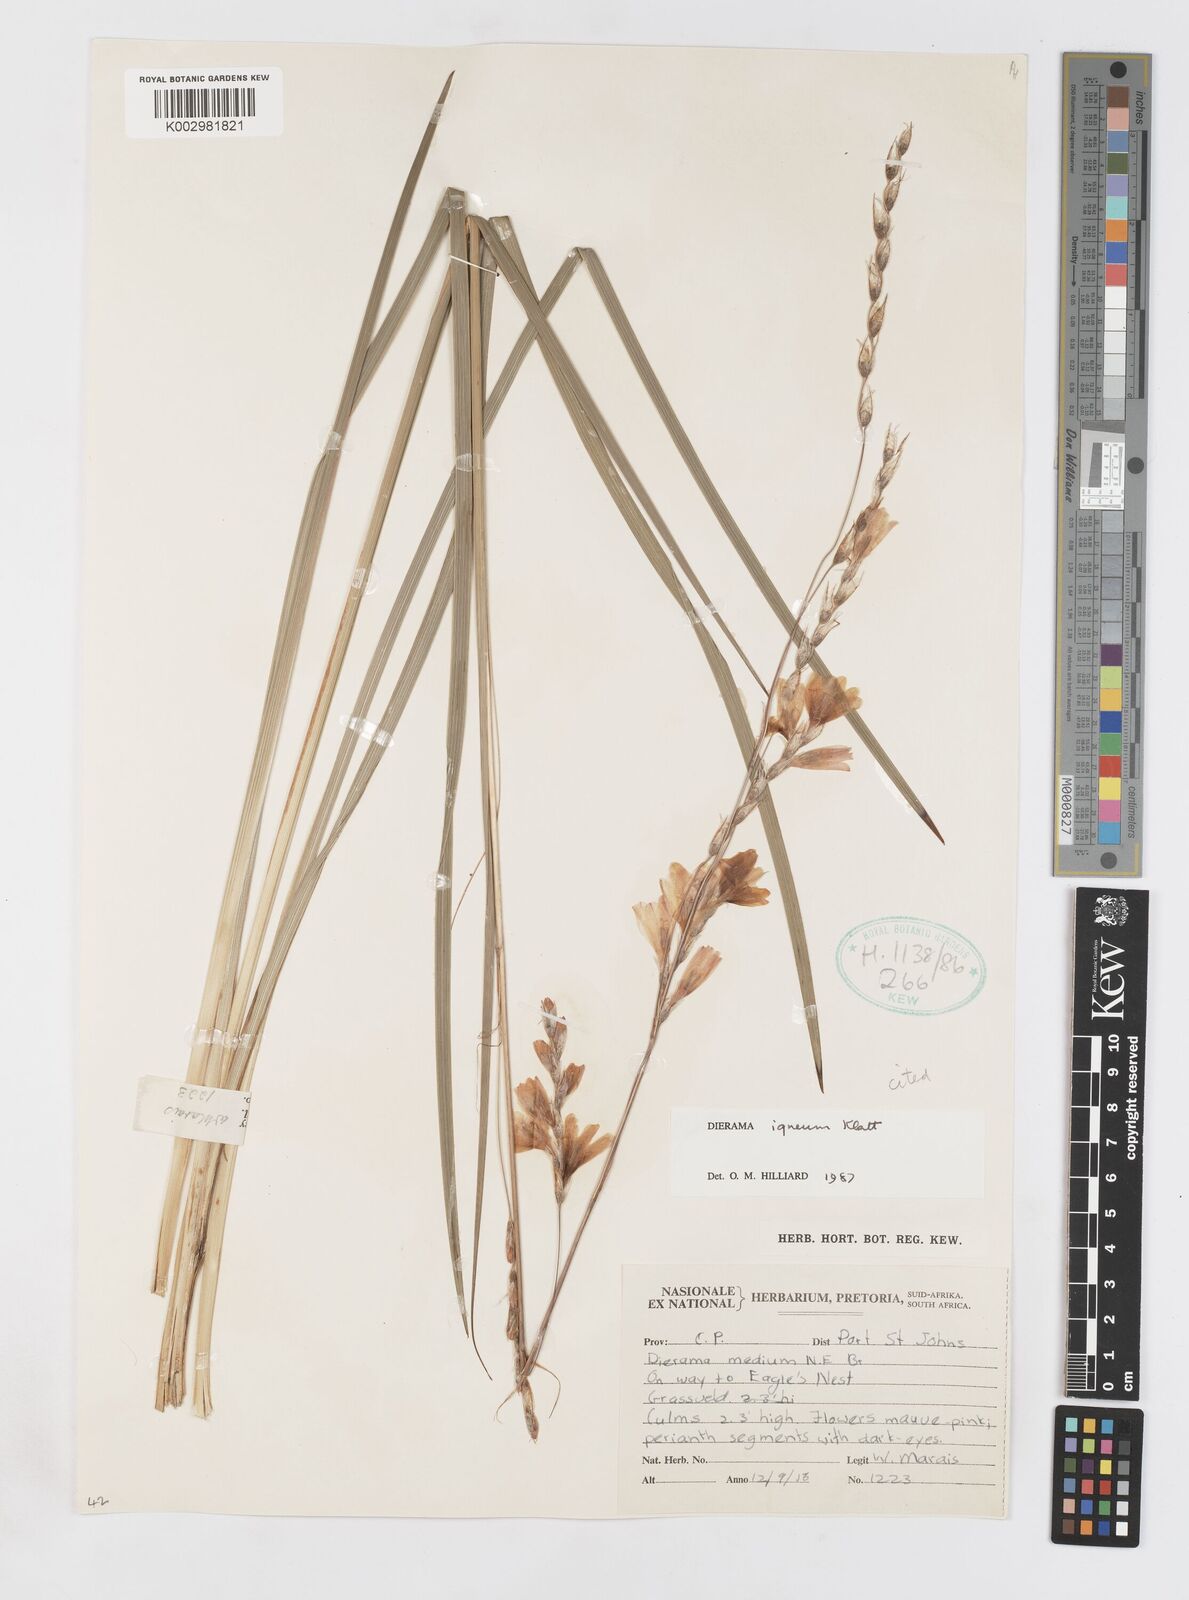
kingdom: Plantae
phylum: Tracheophyta
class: Liliopsida
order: Asparagales
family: Iridaceae
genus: Dierama
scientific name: Dierama igneum
